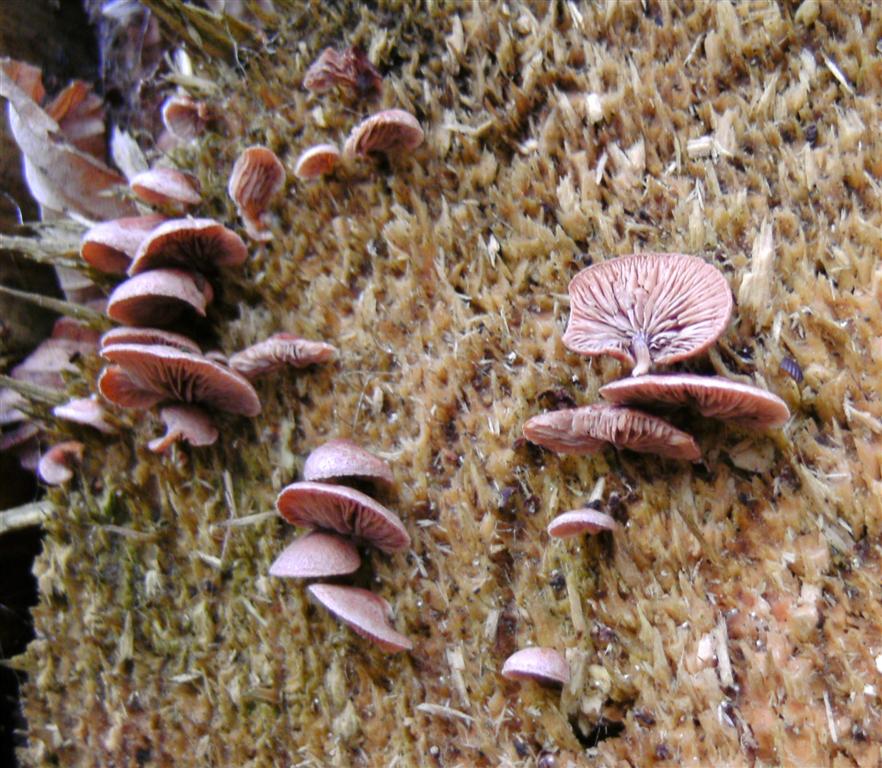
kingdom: Fungi
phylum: Basidiomycota
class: Agaricomycetes
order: Agaricales
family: Strophariaceae
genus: Deconica
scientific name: Deconica horizontalis
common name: ved-stråhat
